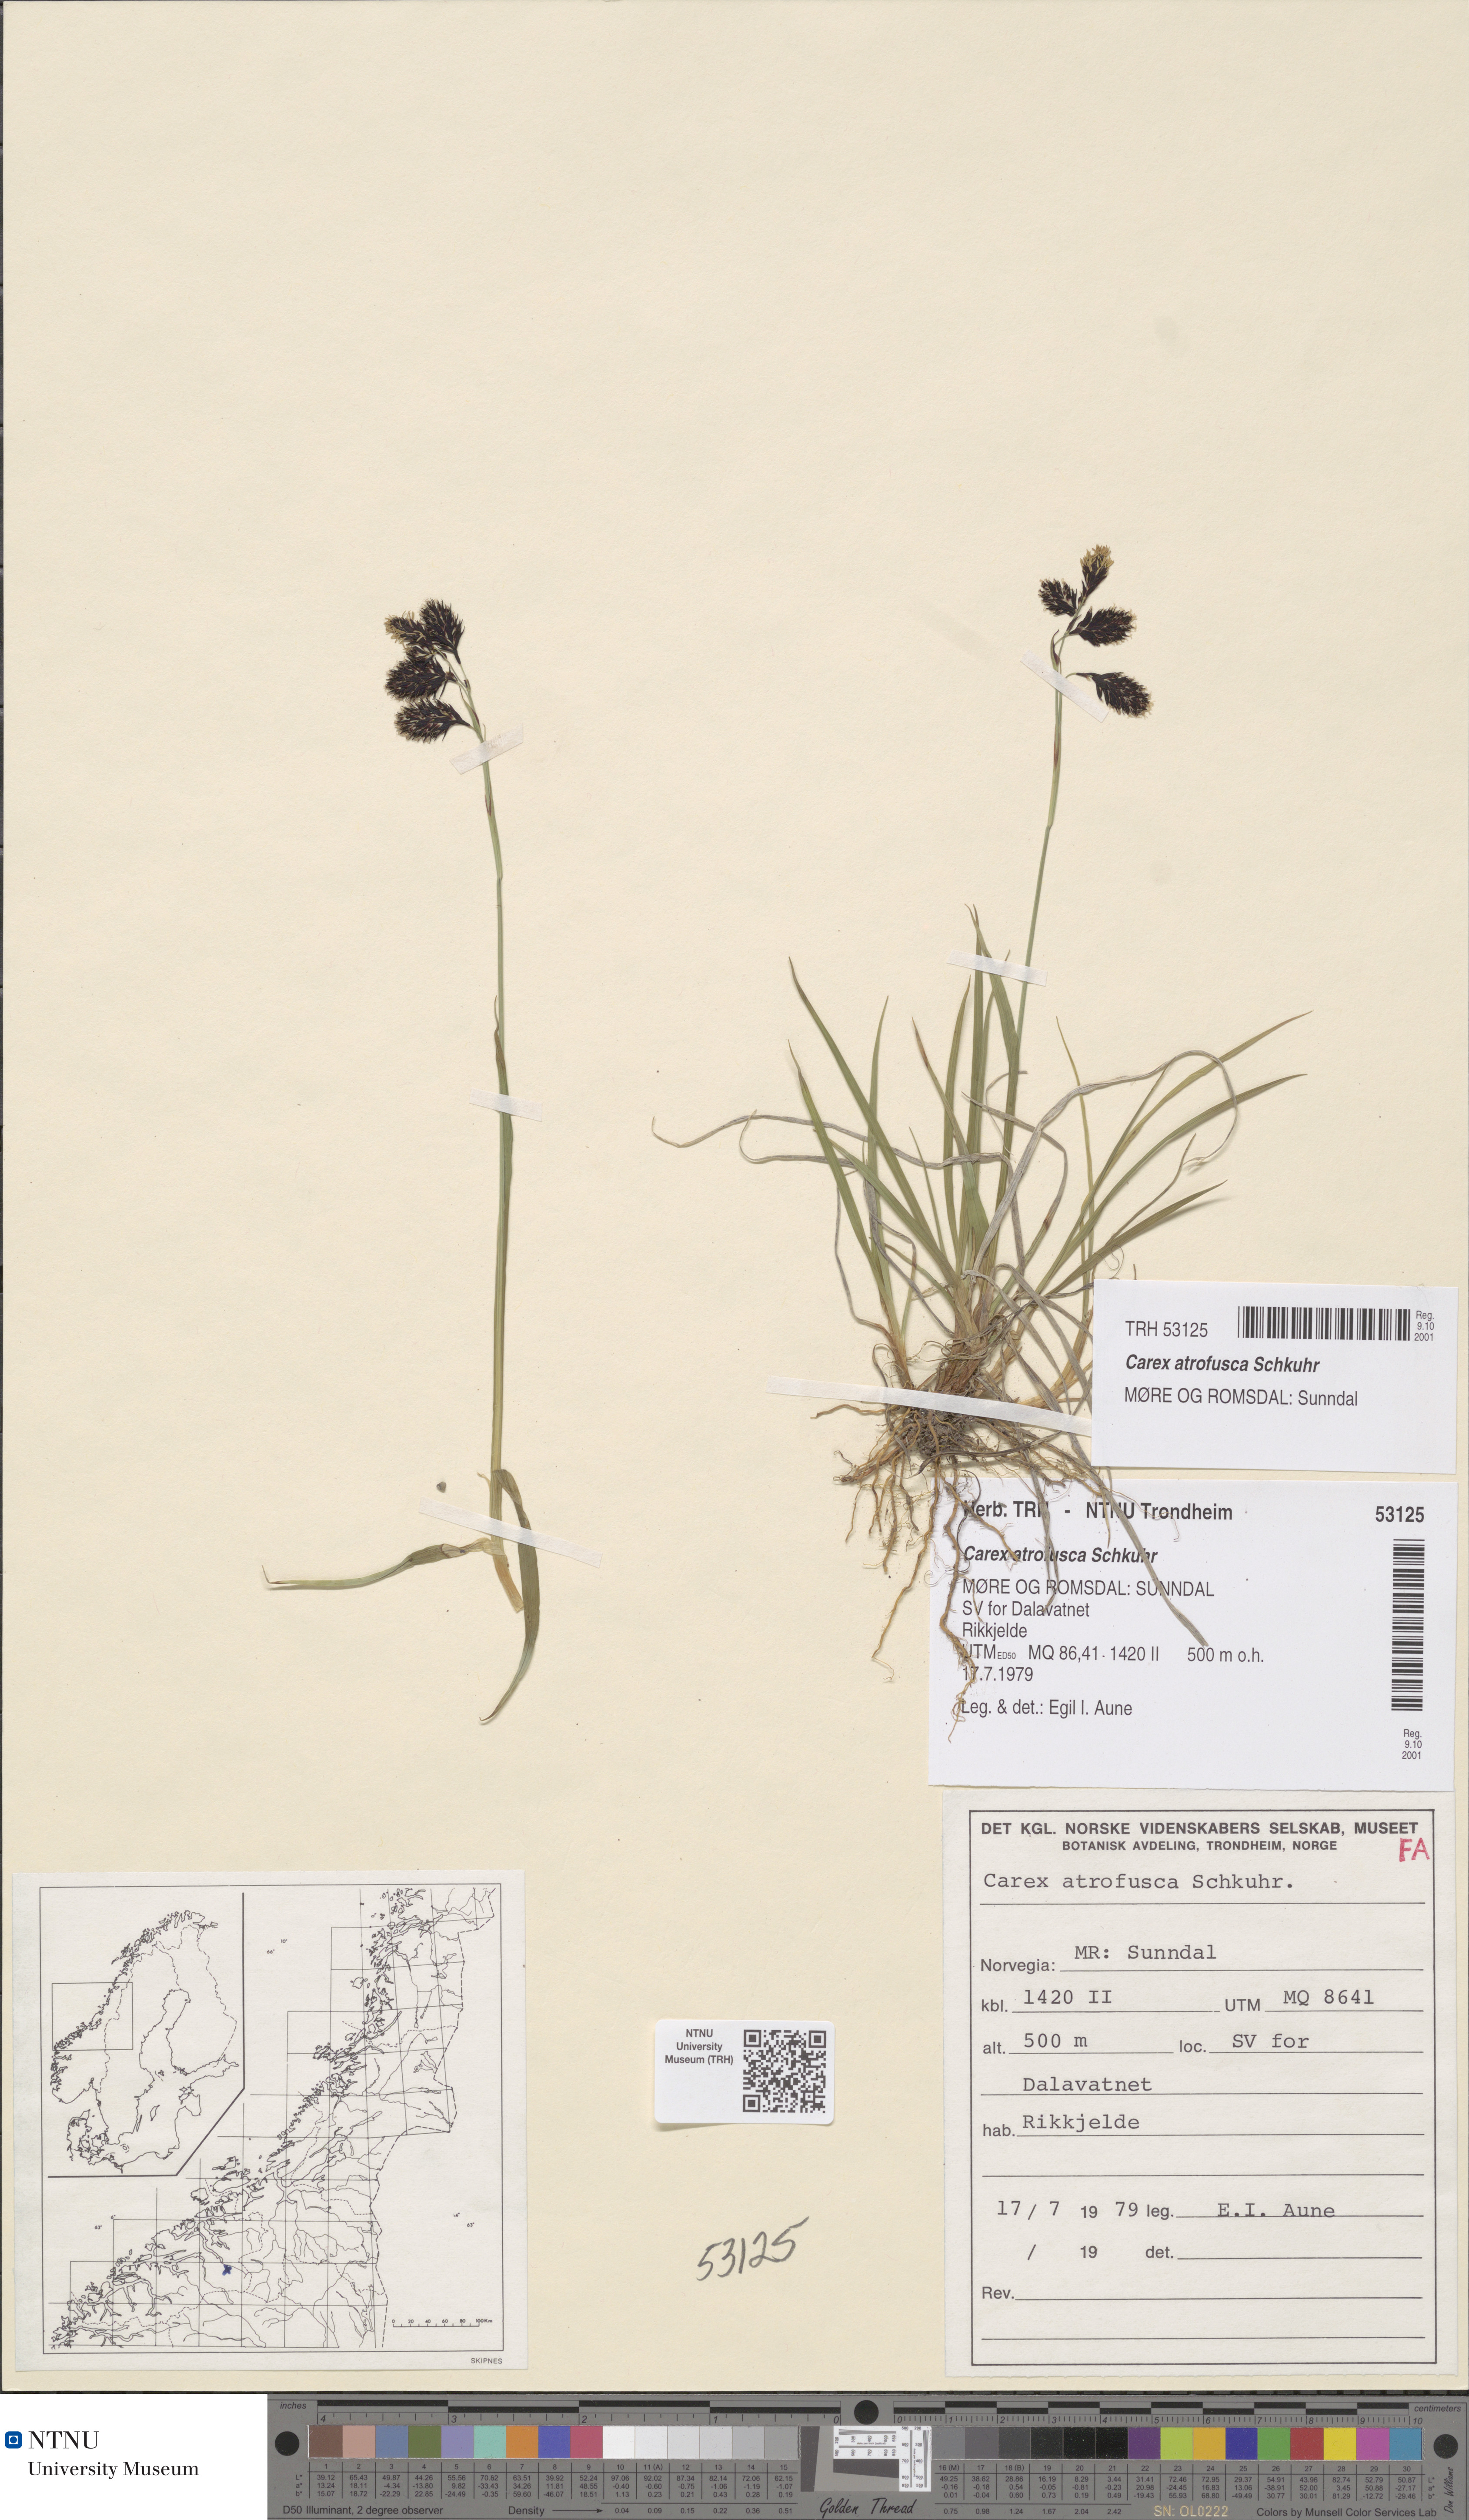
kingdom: Plantae
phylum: Tracheophyta
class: Liliopsida
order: Poales
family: Cyperaceae
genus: Carex
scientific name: Carex atrofusca
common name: Scorched alpine-sedge
